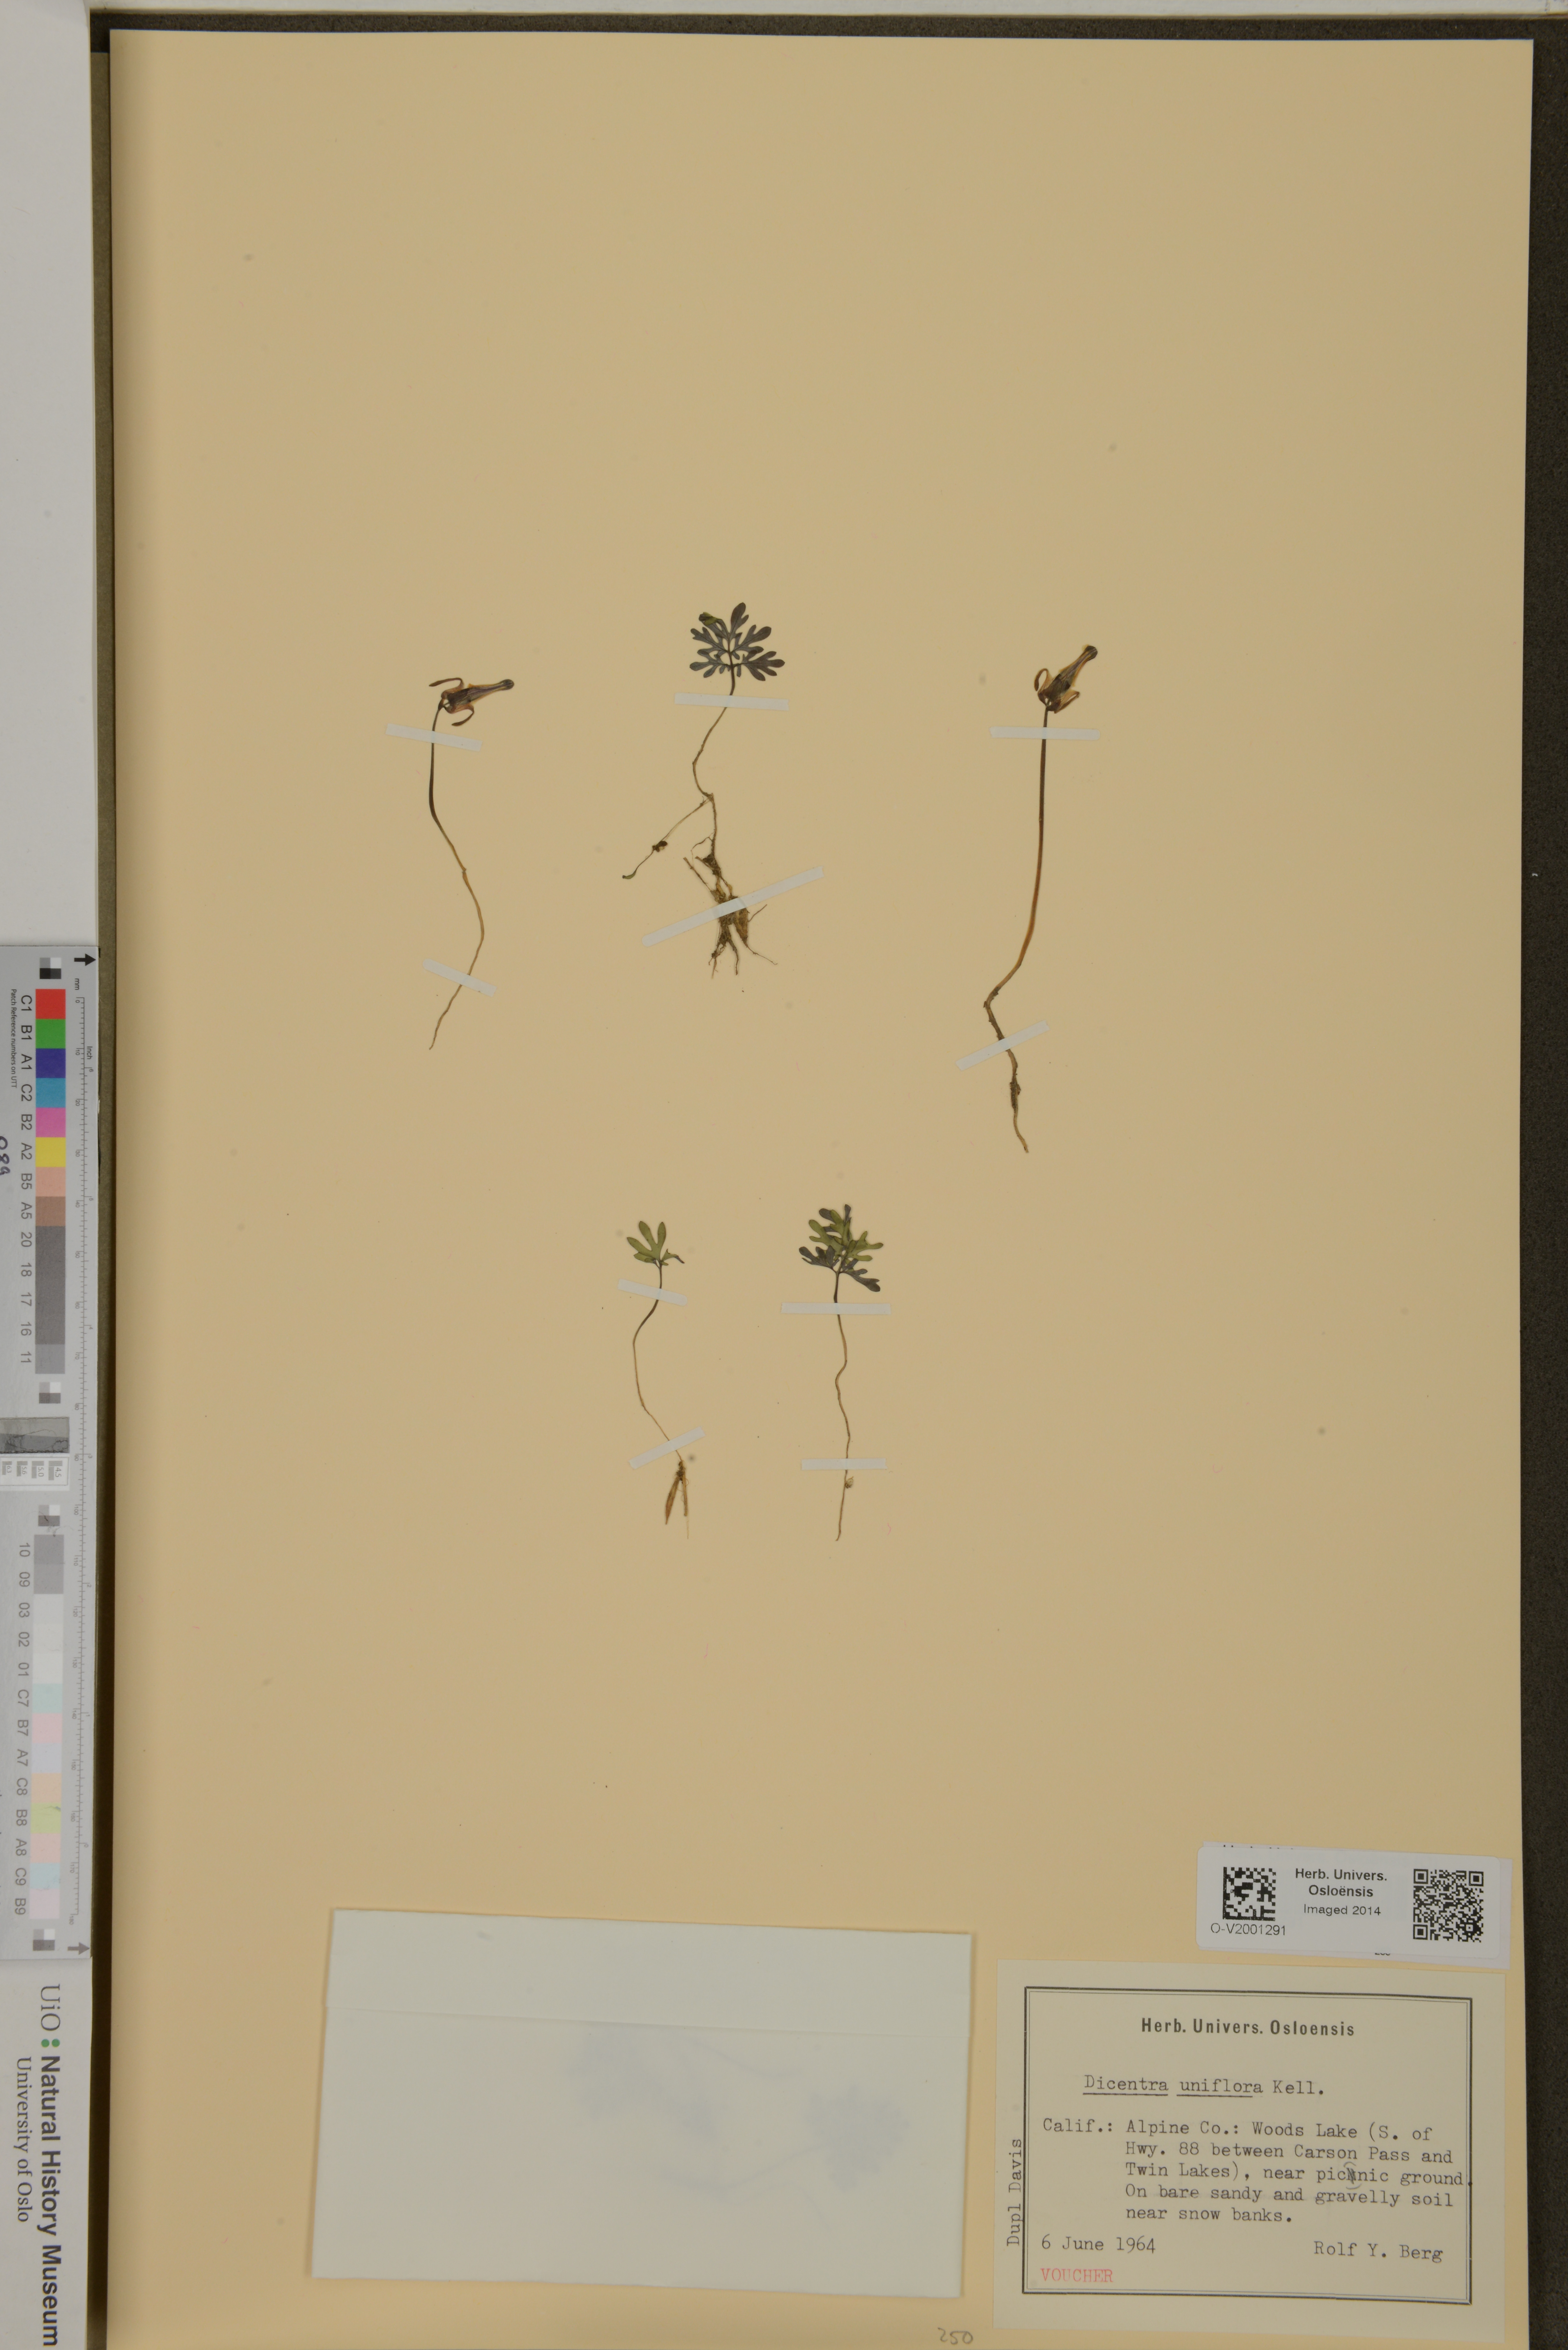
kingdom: Plantae
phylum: Tracheophyta
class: Magnoliopsida
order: Ranunculales
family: Papaveraceae
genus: Dicentra
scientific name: Dicentra uniflora
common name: Steer's-head
